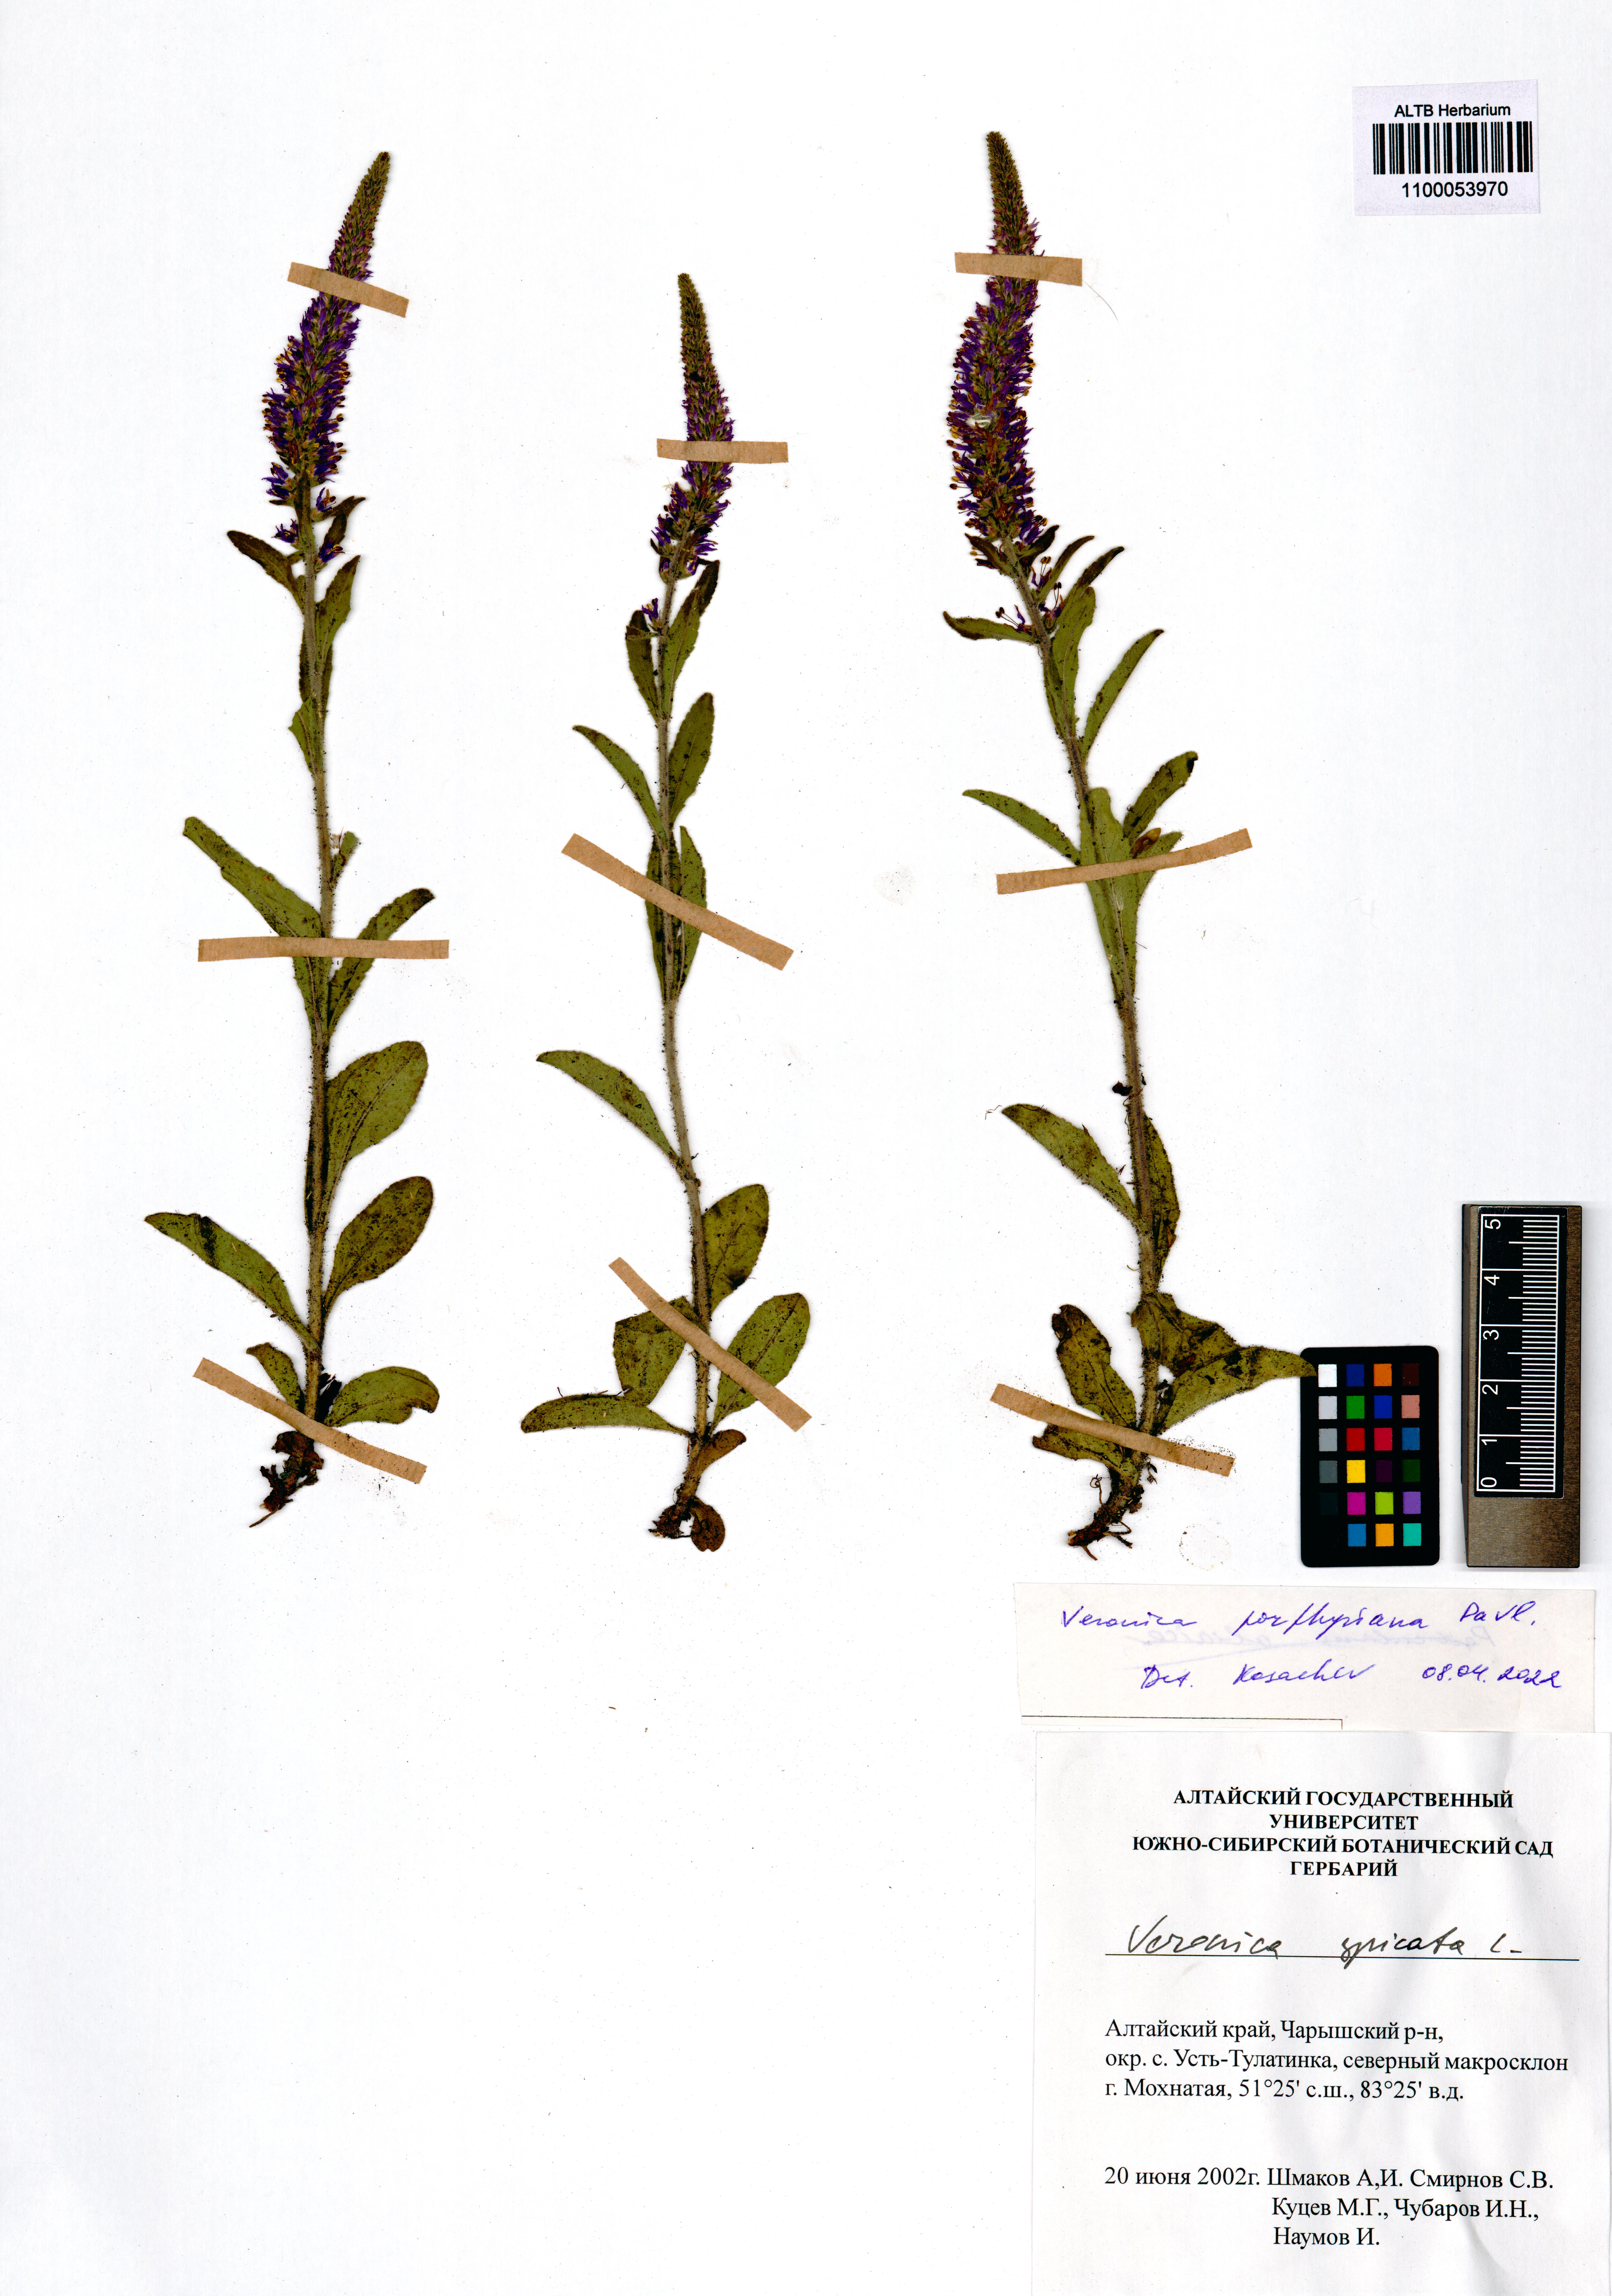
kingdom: Plantae
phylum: Tracheophyta
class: Magnoliopsida
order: Lamiales
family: Plantaginaceae
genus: Veronica
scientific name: Veronica porphyriana
